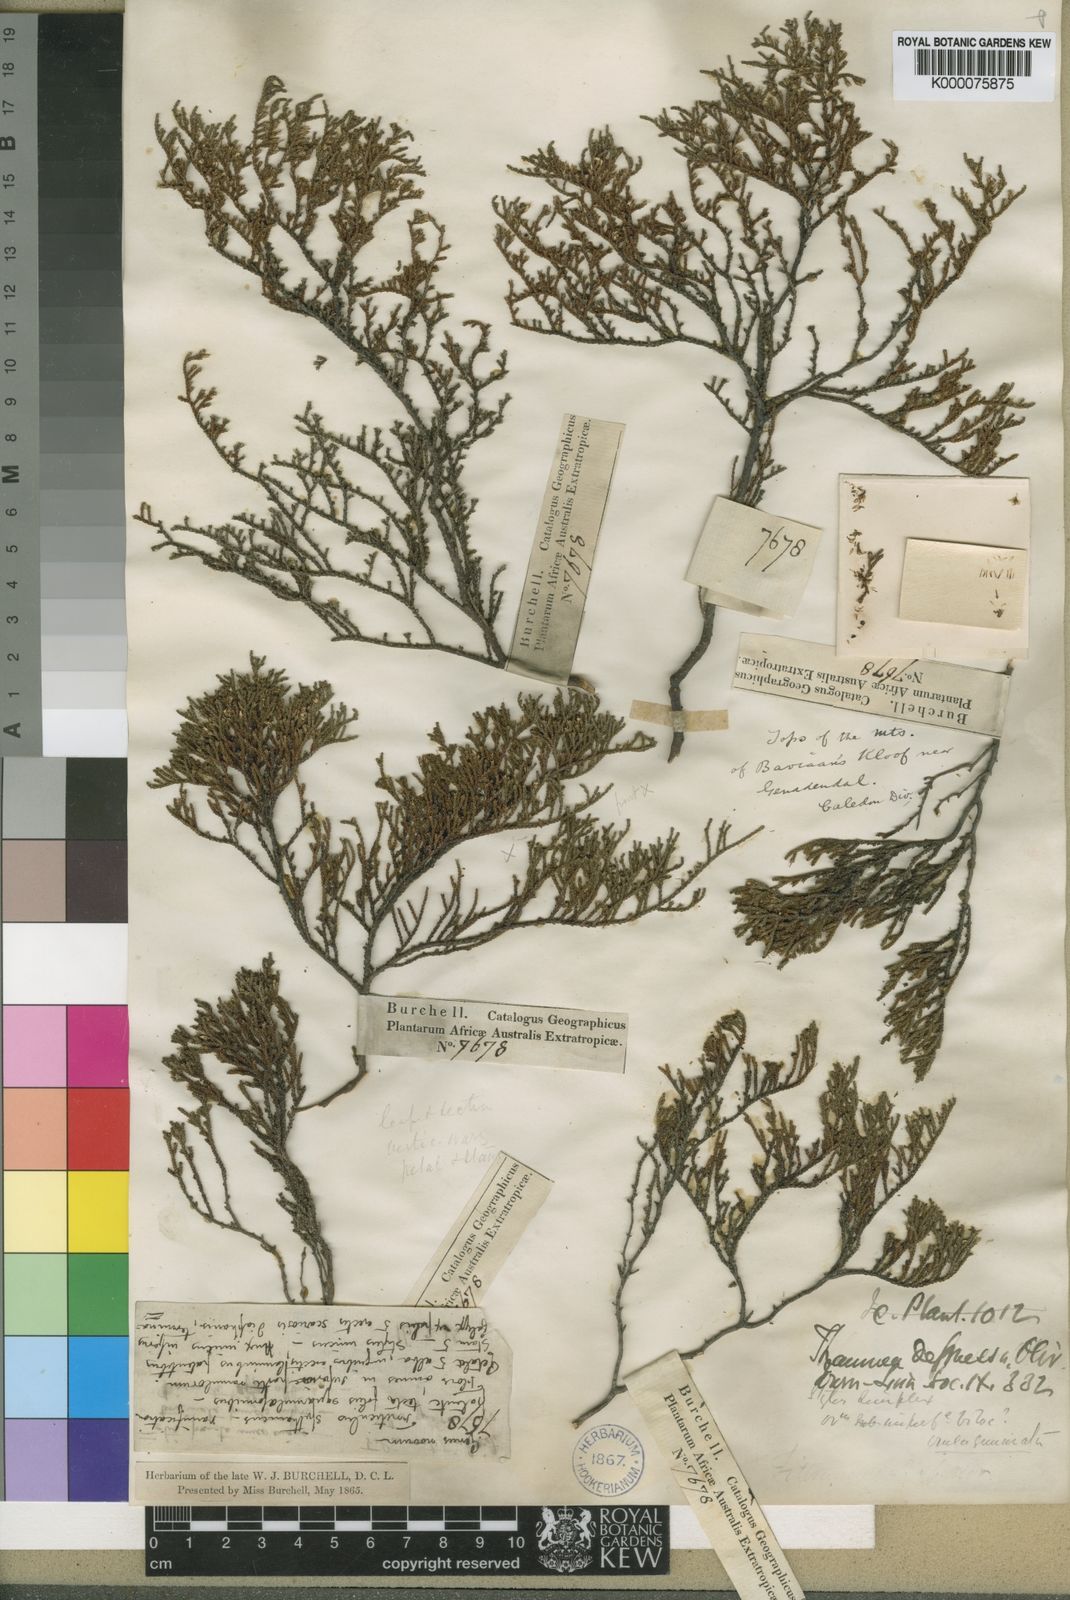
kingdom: Plantae
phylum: Tracheophyta
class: Magnoliopsida
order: Bruniales
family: Bruniaceae
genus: Thamnea
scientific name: Thamnea depressa
